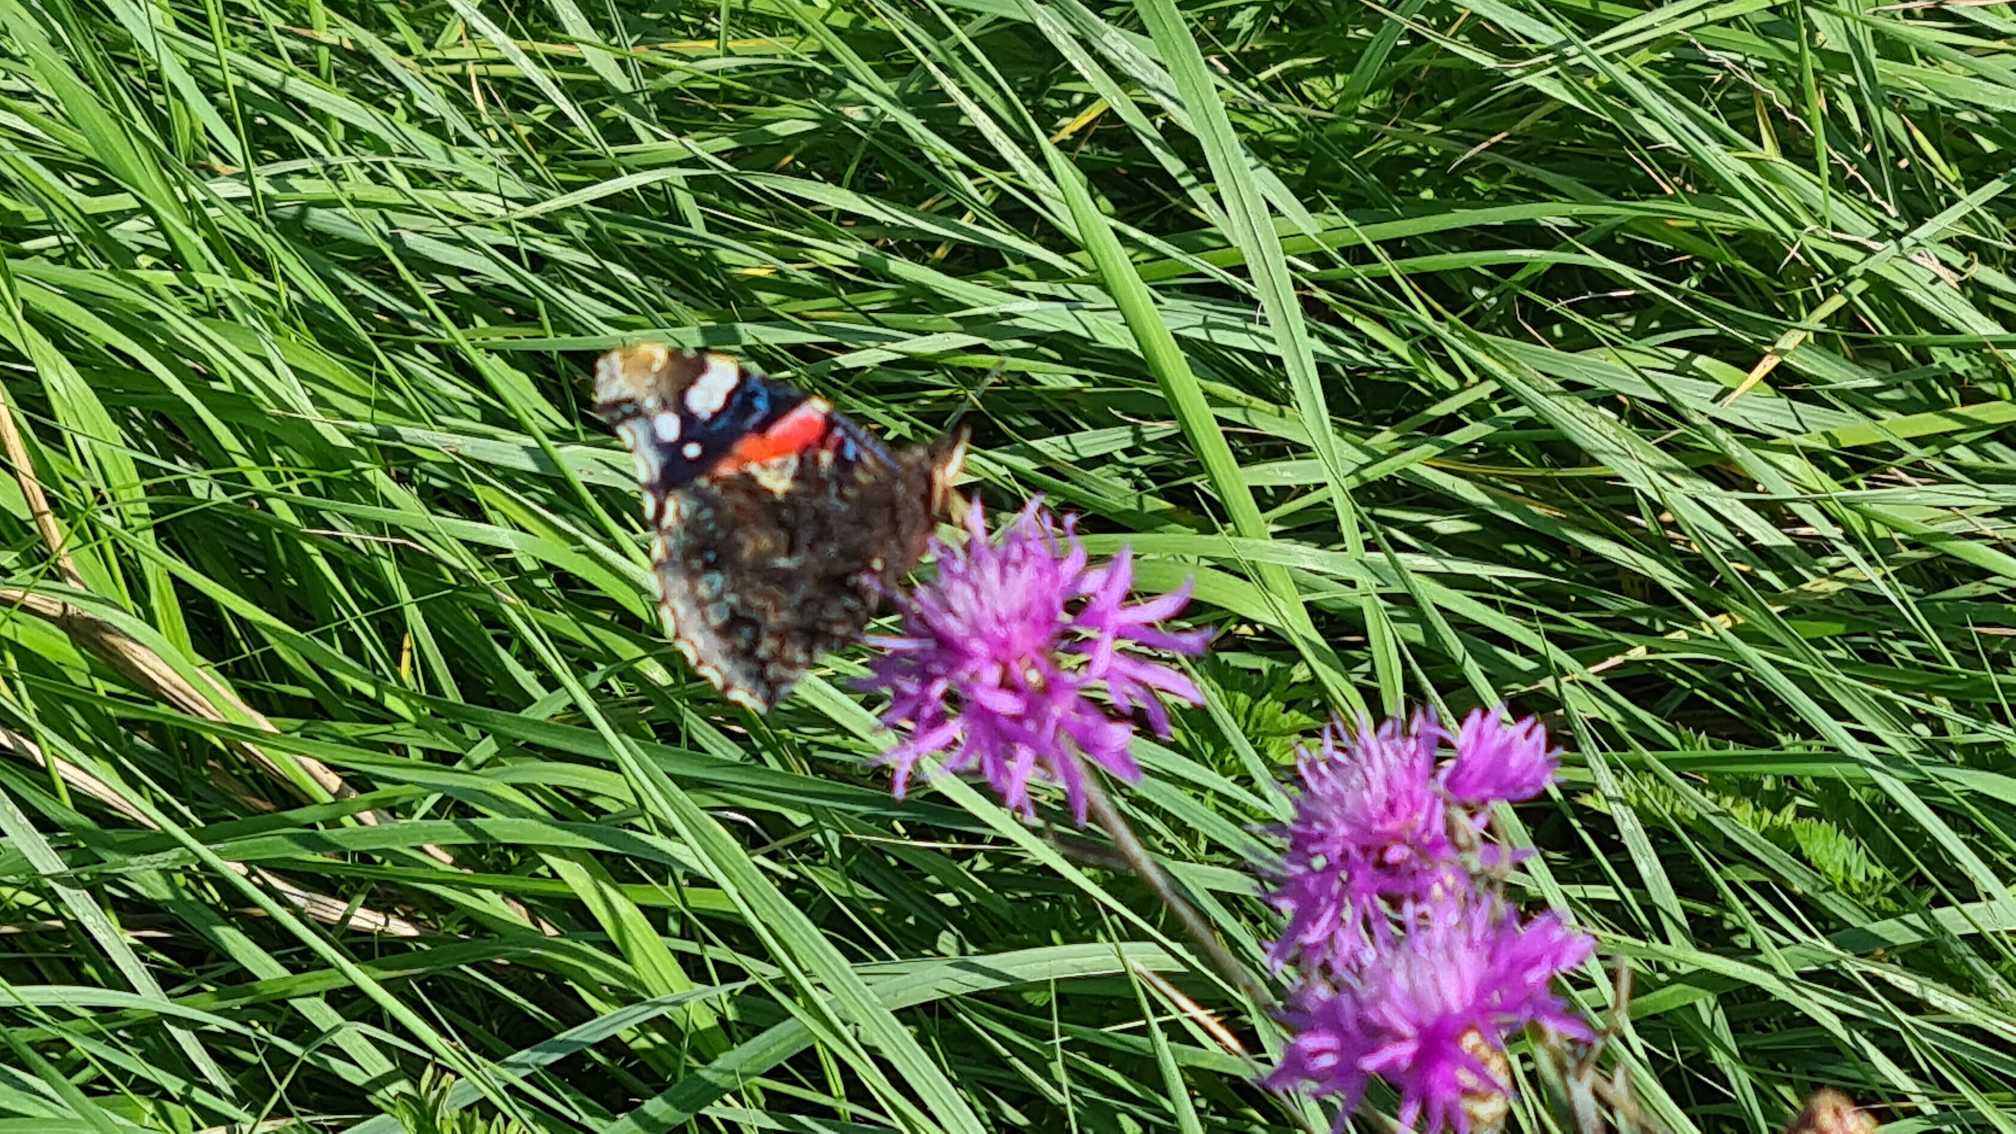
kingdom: Animalia
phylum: Arthropoda
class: Insecta
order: Lepidoptera
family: Nymphalidae
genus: Vanessa
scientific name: Vanessa atalanta
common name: Admiral
